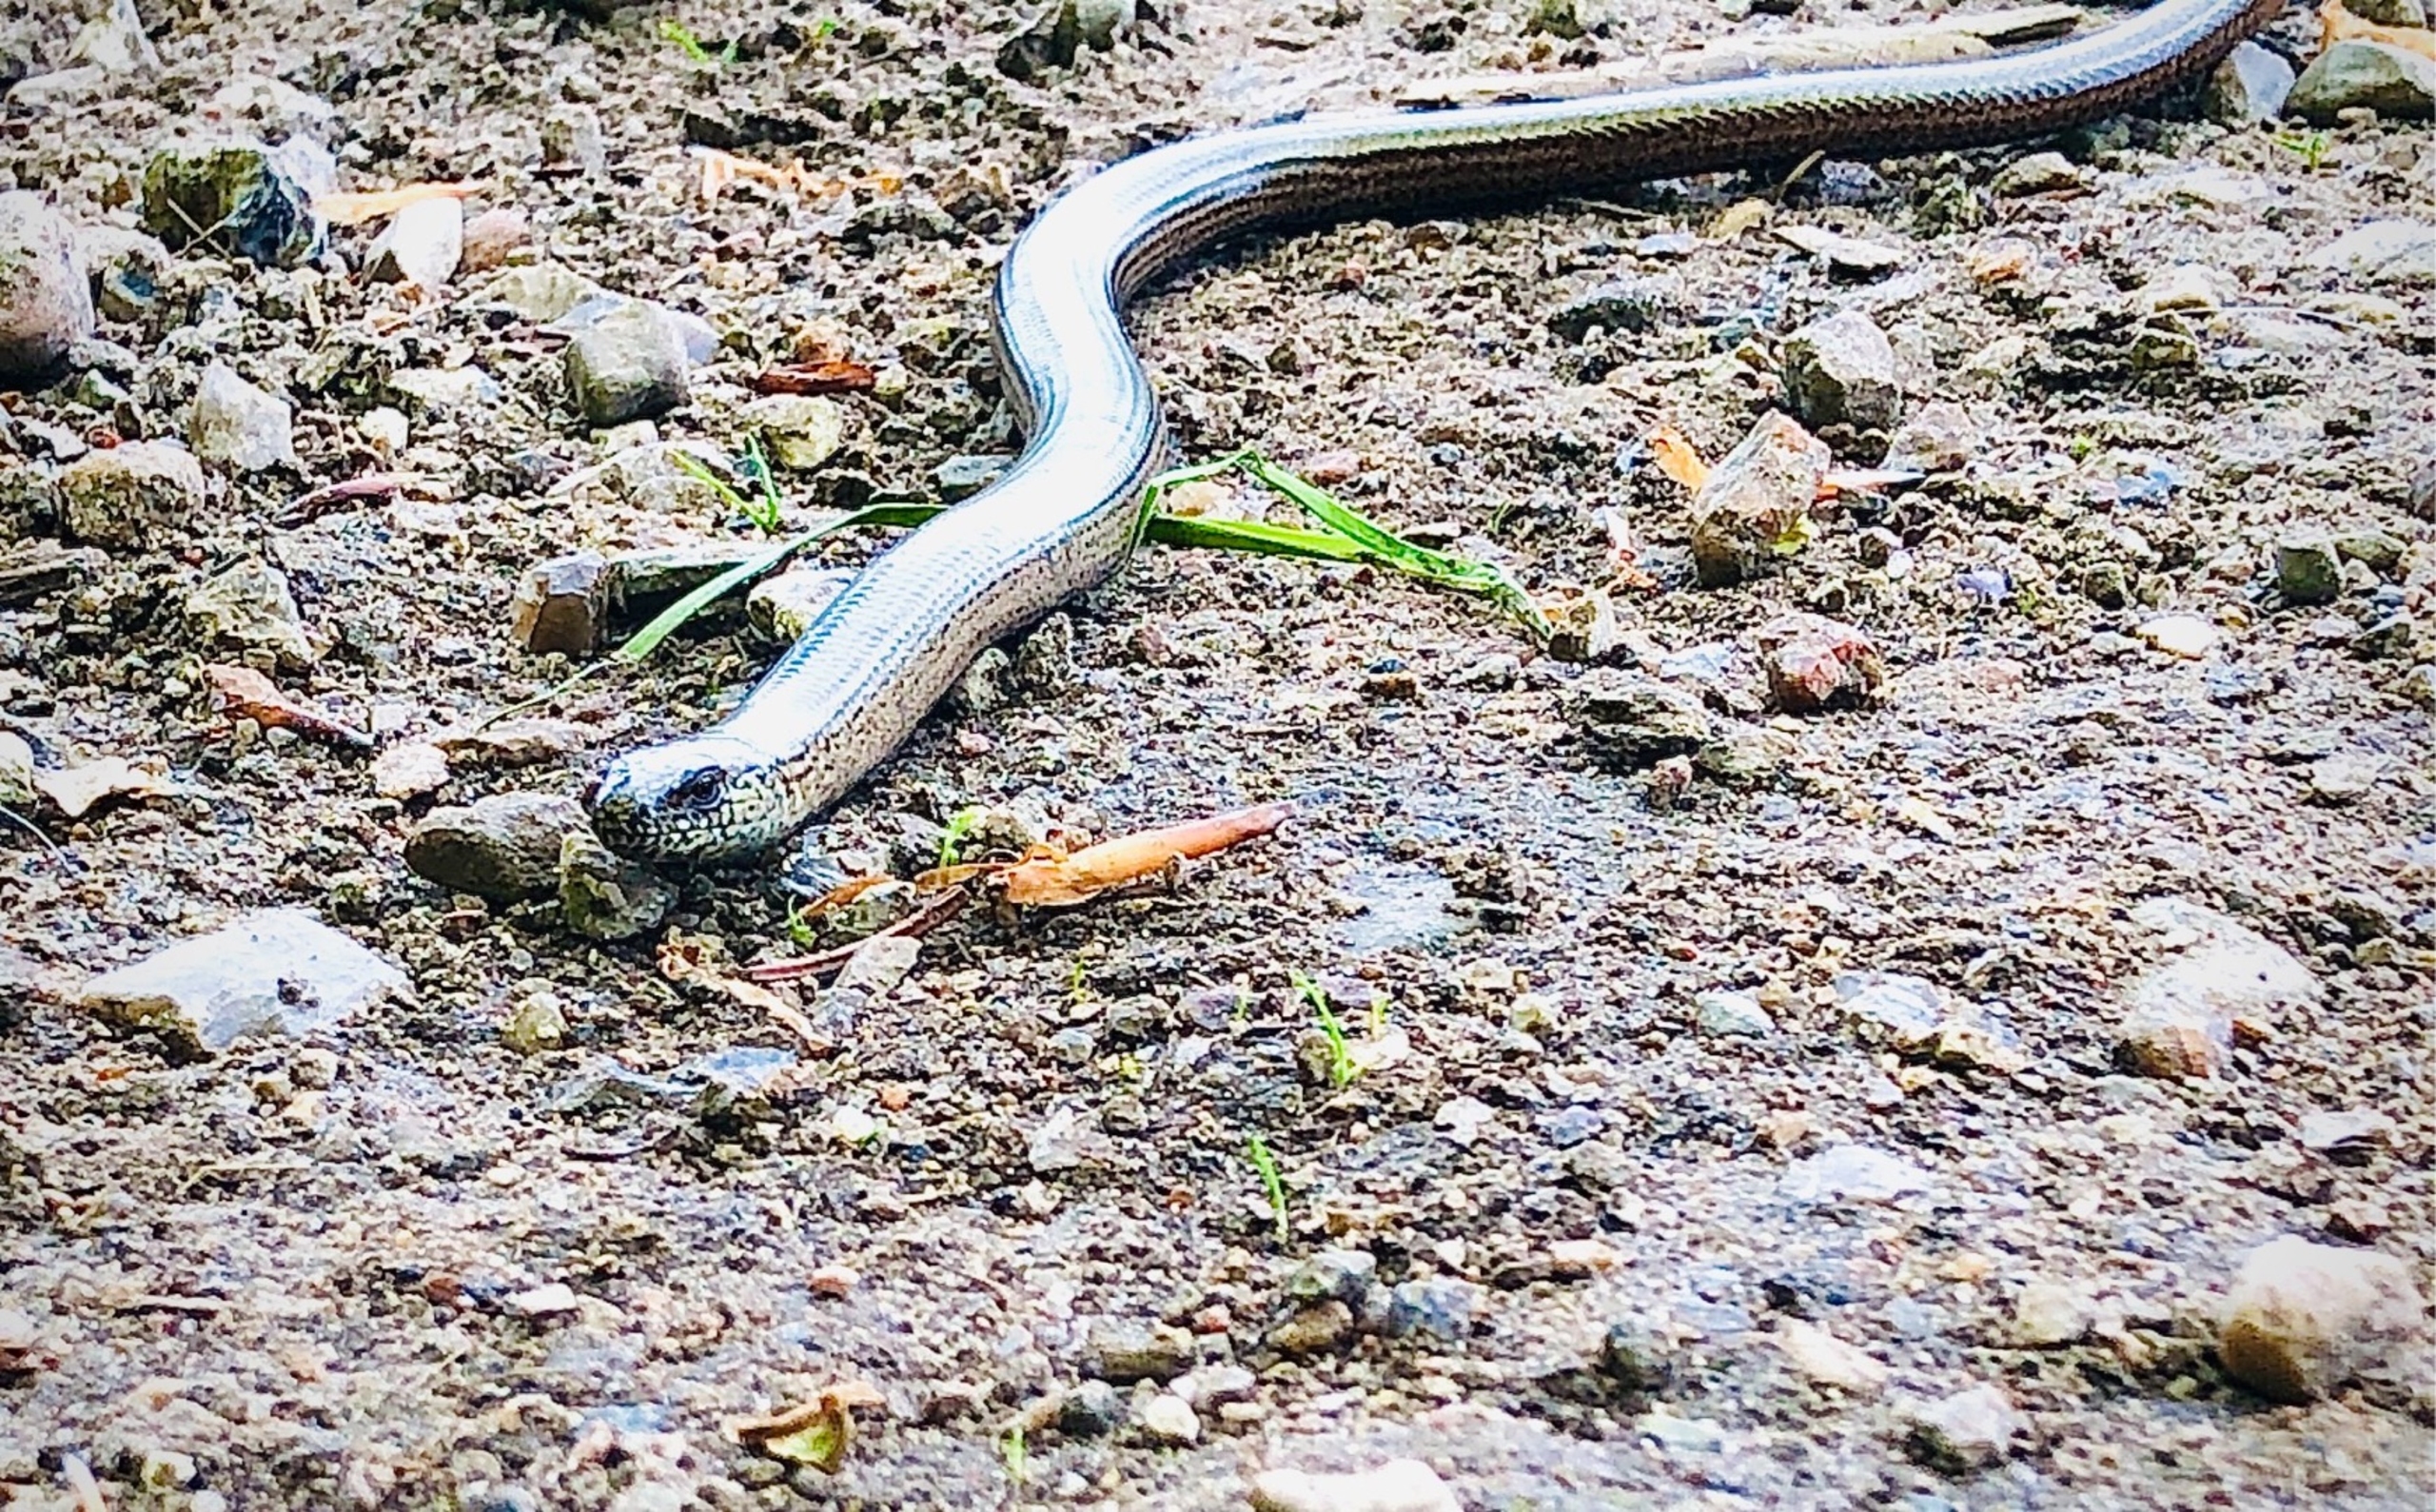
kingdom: Animalia
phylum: Chordata
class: Squamata
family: Anguidae
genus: Anguis
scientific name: Anguis fragilis
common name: Stålorm
